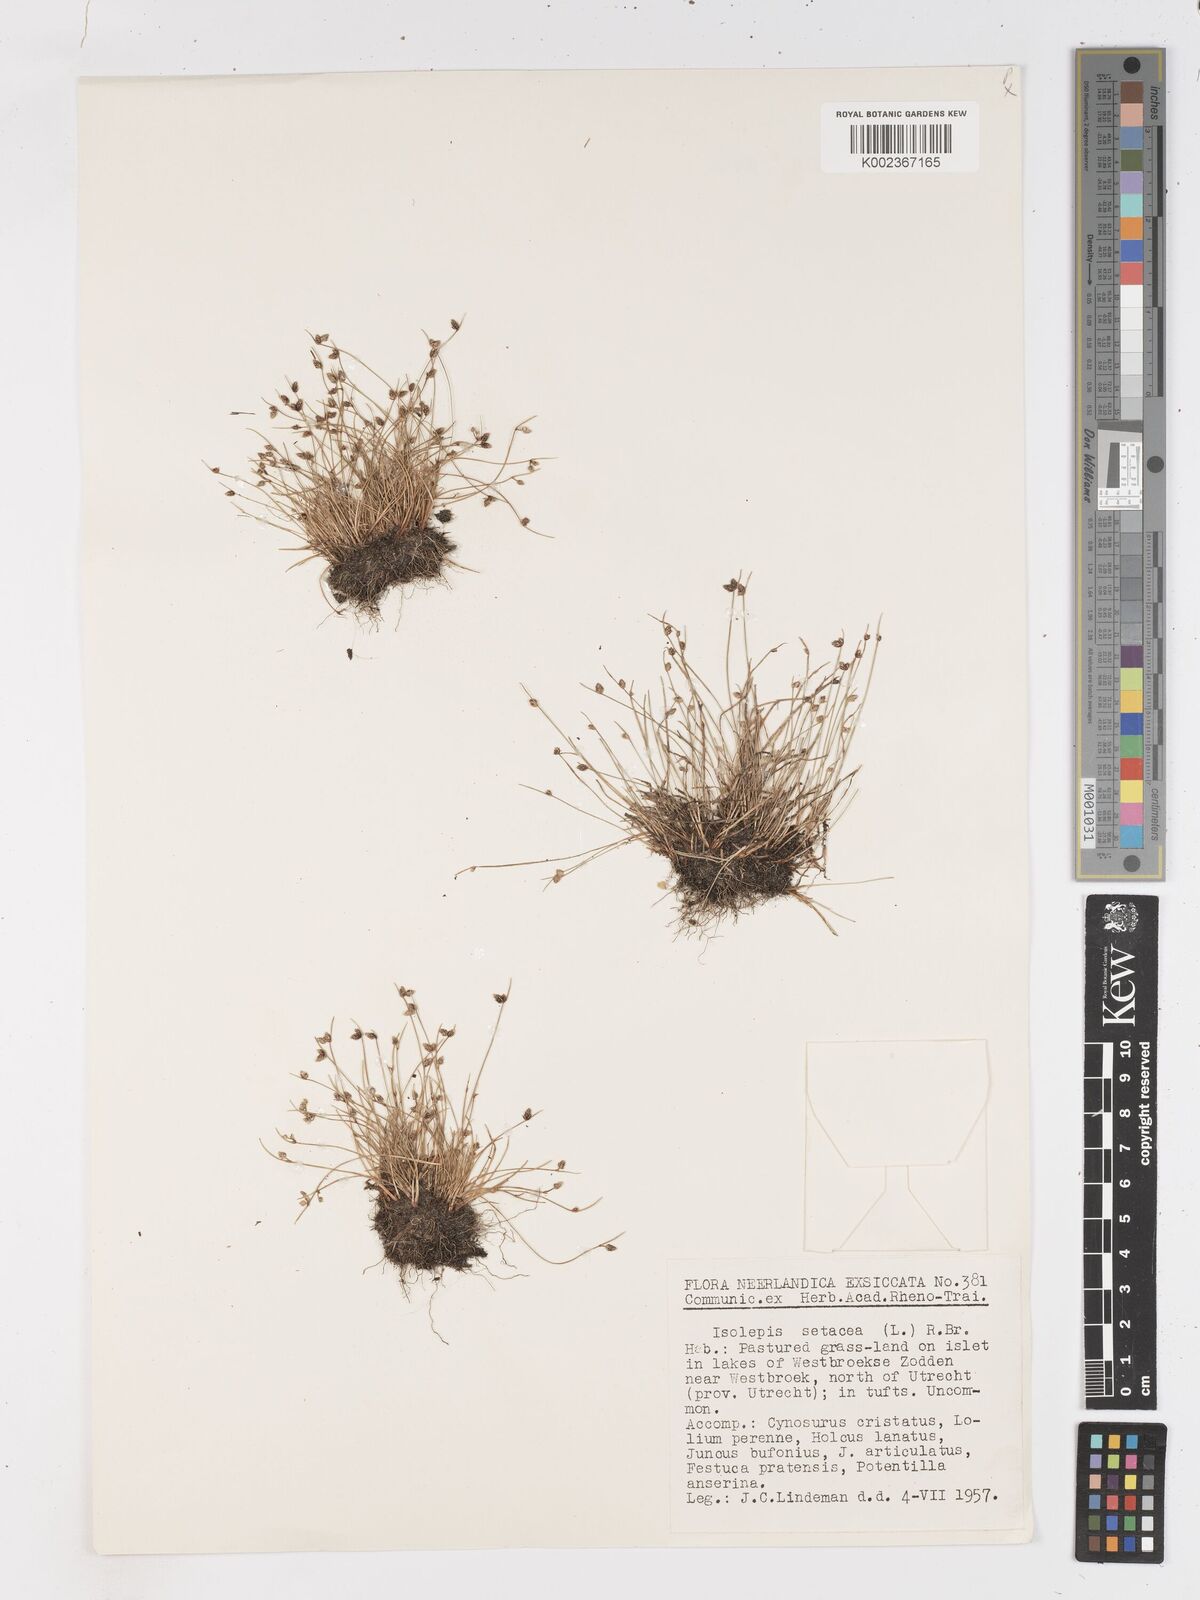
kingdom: Plantae
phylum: Tracheophyta
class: Liliopsida
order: Poales
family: Cyperaceae
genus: Isolepis
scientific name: Isolepis setacea
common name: Bristle club-rush
